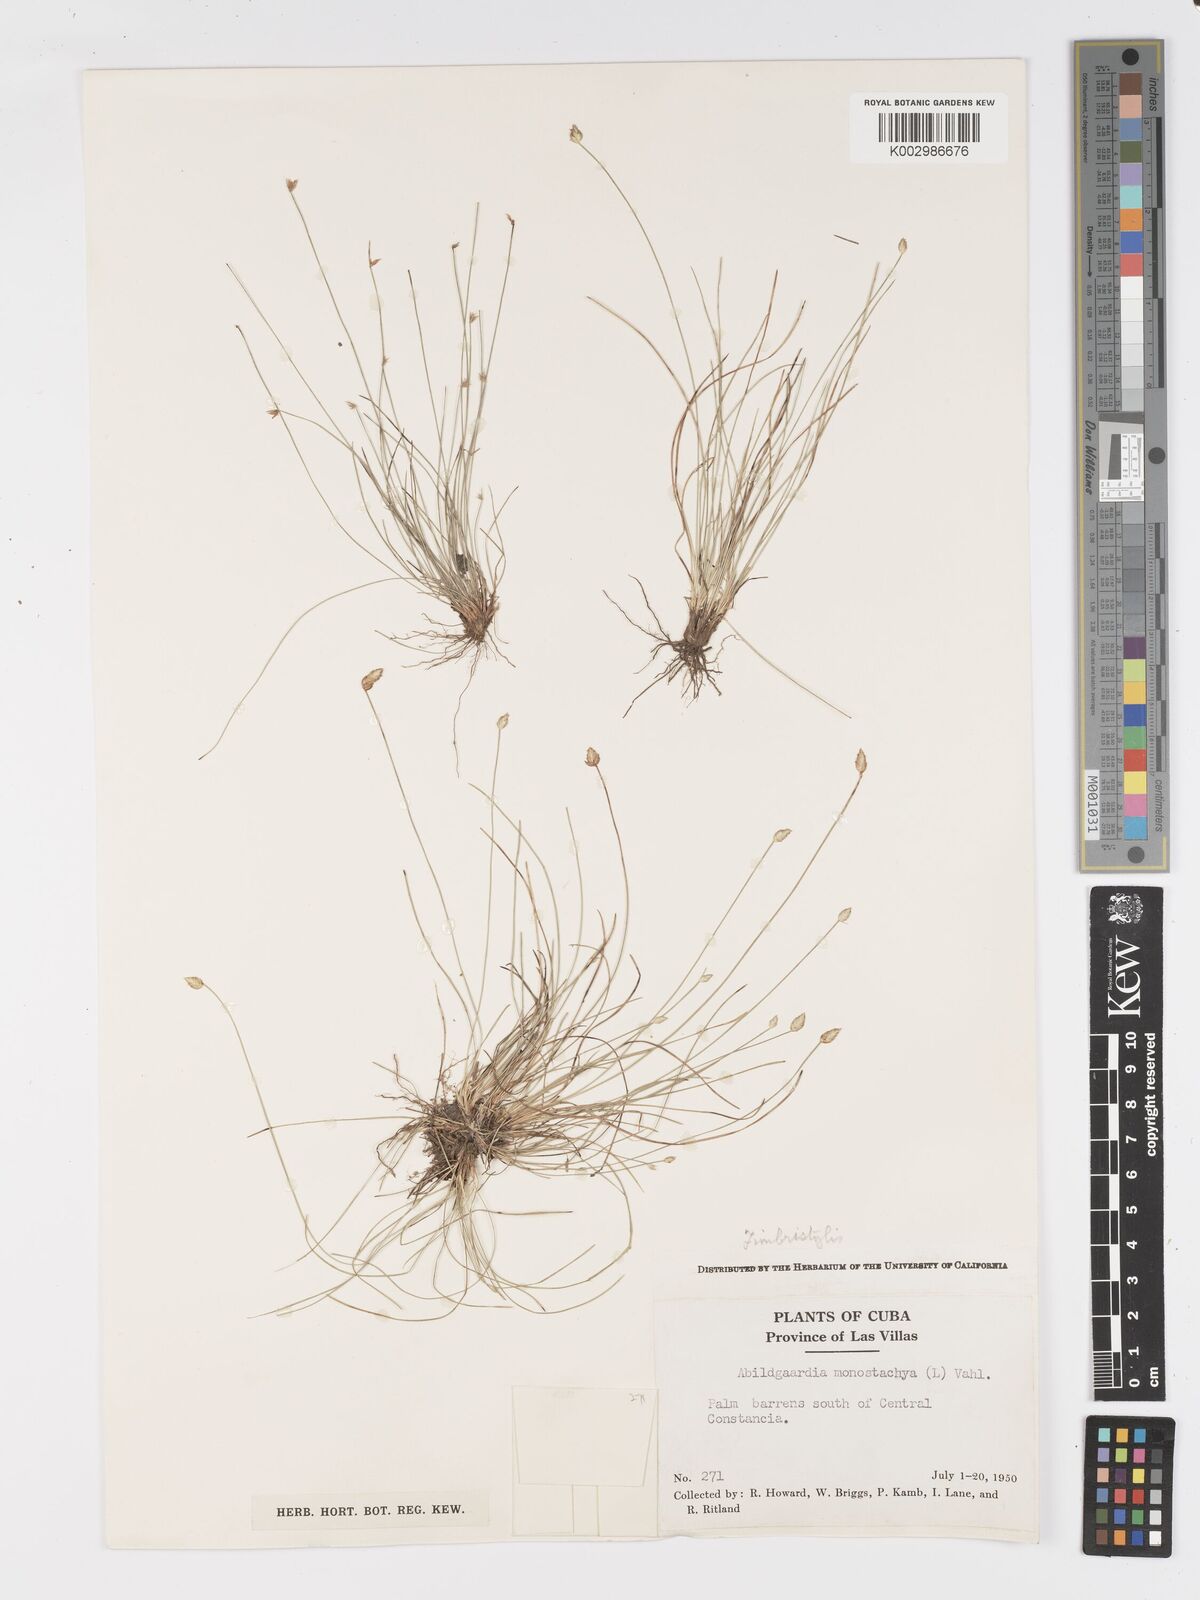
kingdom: Plantae
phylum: Tracheophyta
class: Liliopsida
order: Poales
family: Cyperaceae
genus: Abildgaardia
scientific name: Abildgaardia ovata
